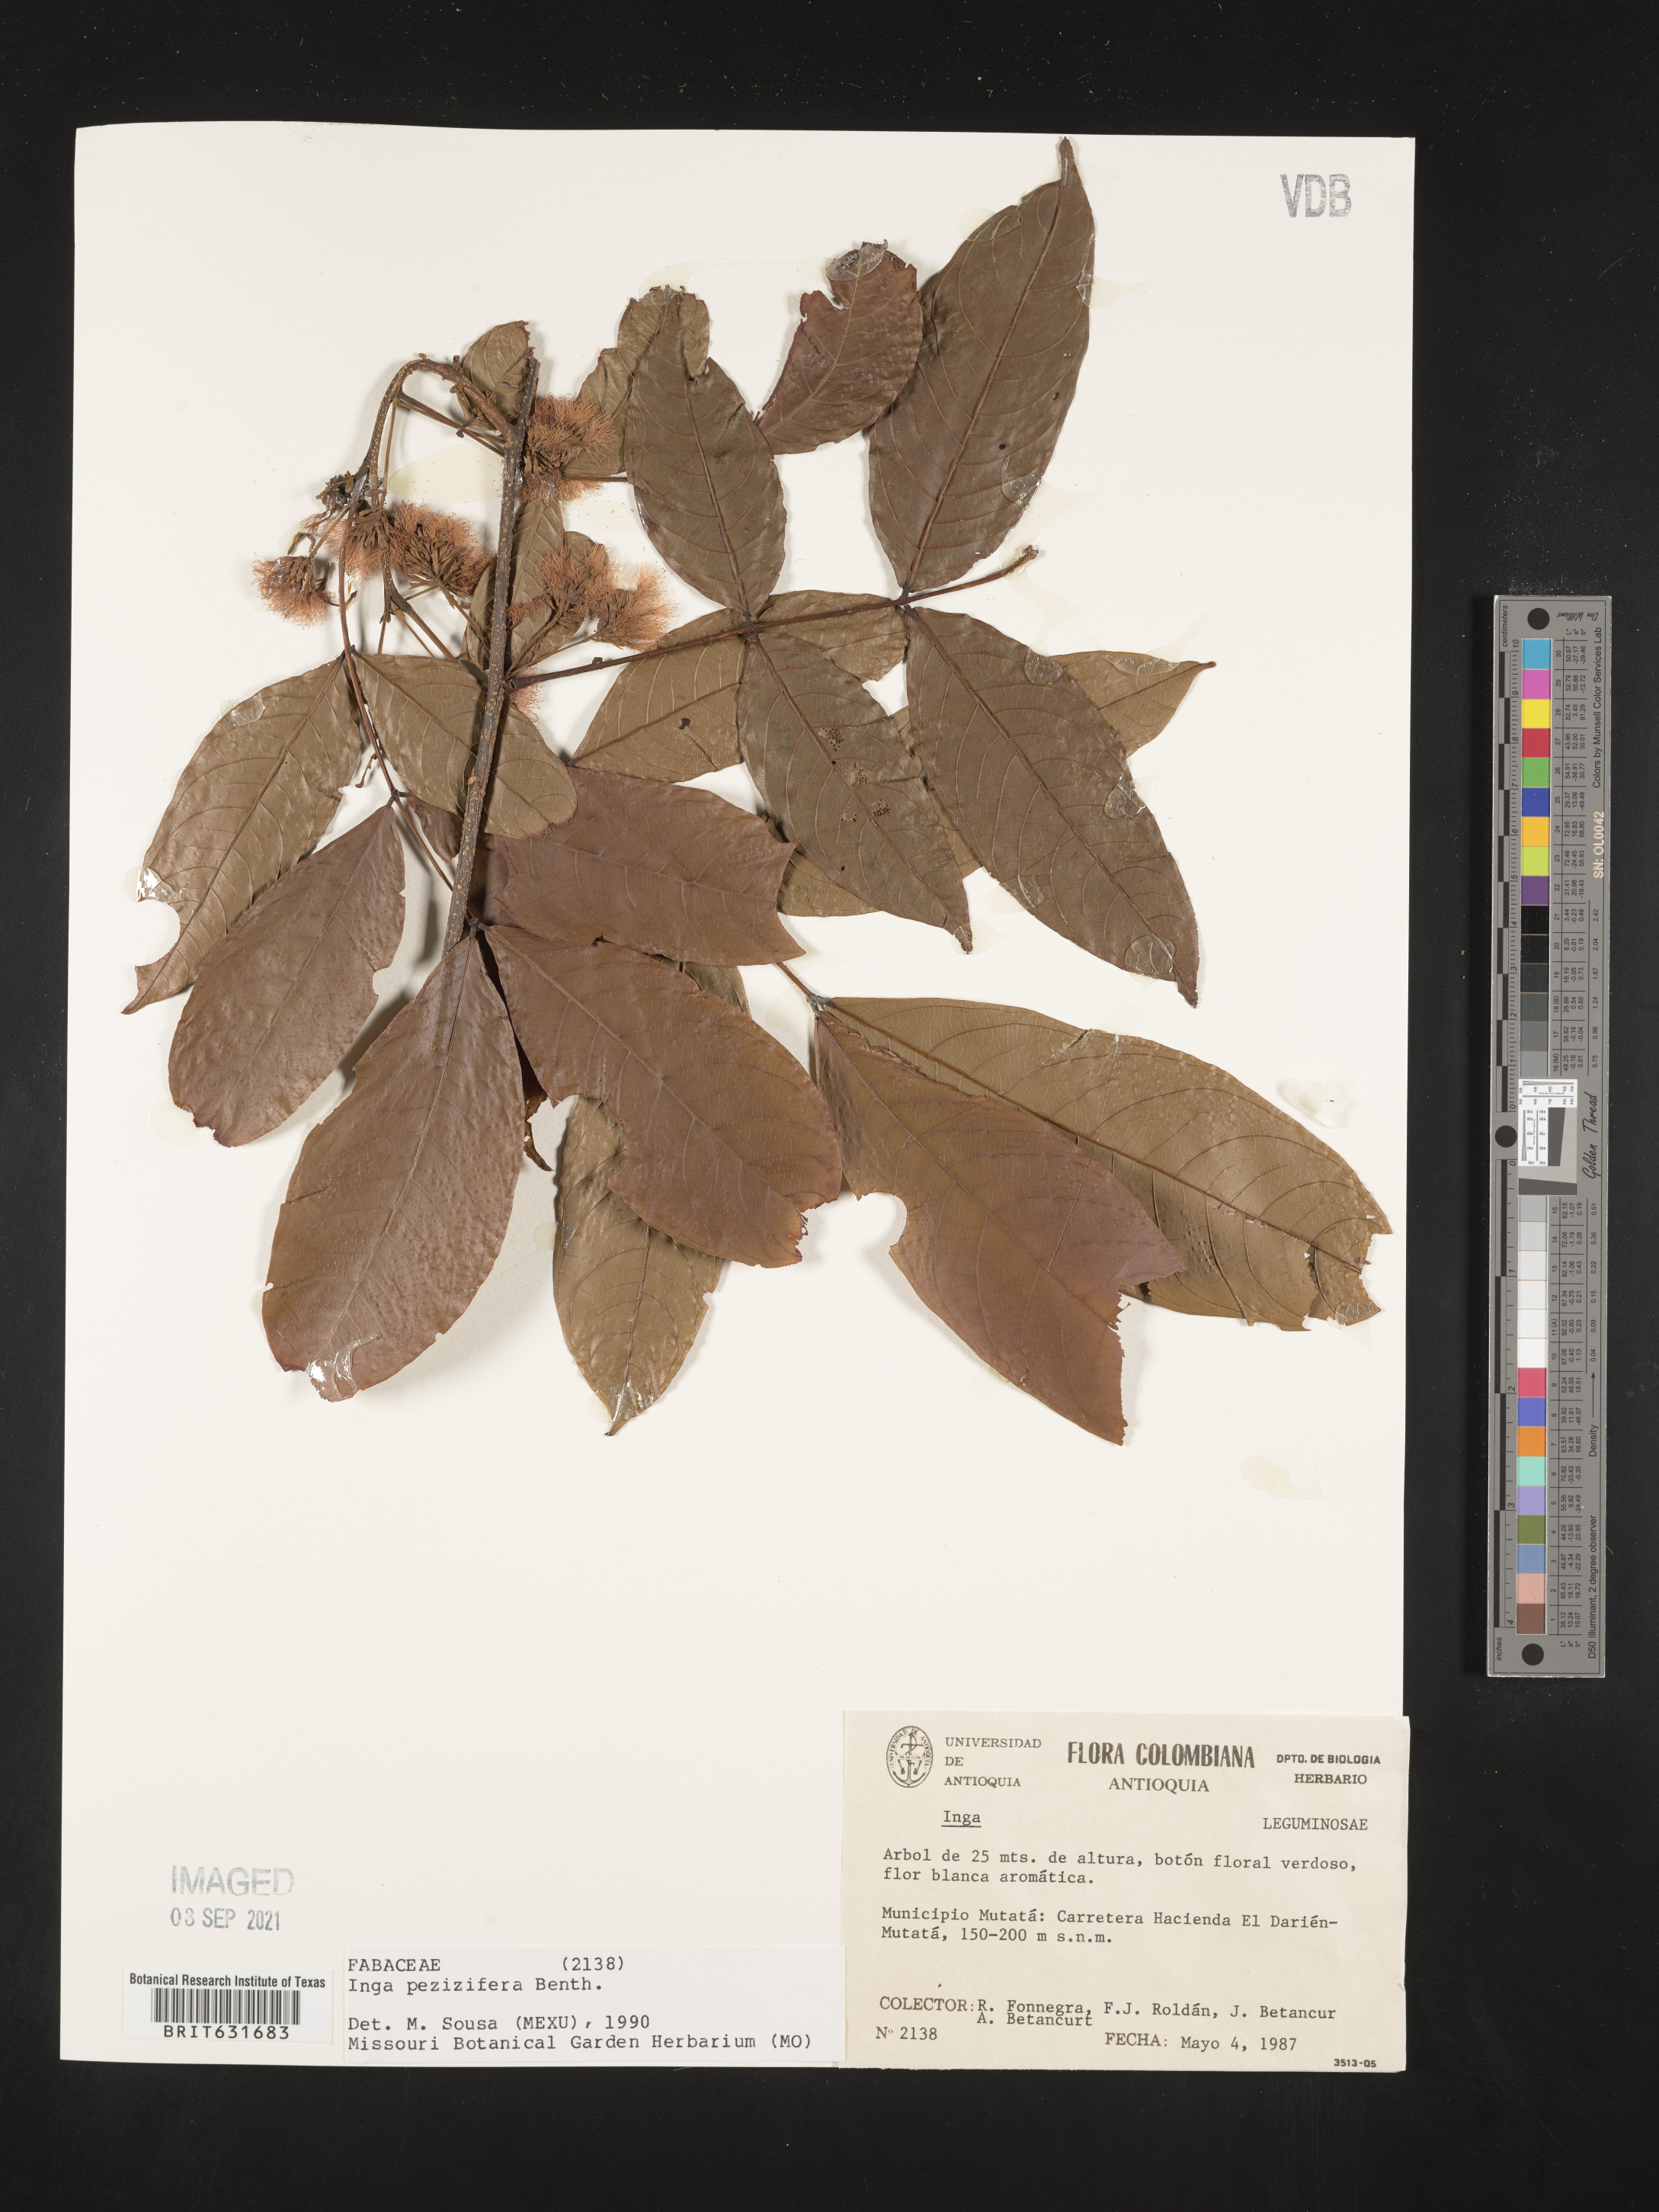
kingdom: Plantae
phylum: Tracheophyta
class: Magnoliopsida
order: Fabales
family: Fabaceae
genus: Inga
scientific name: Inga
